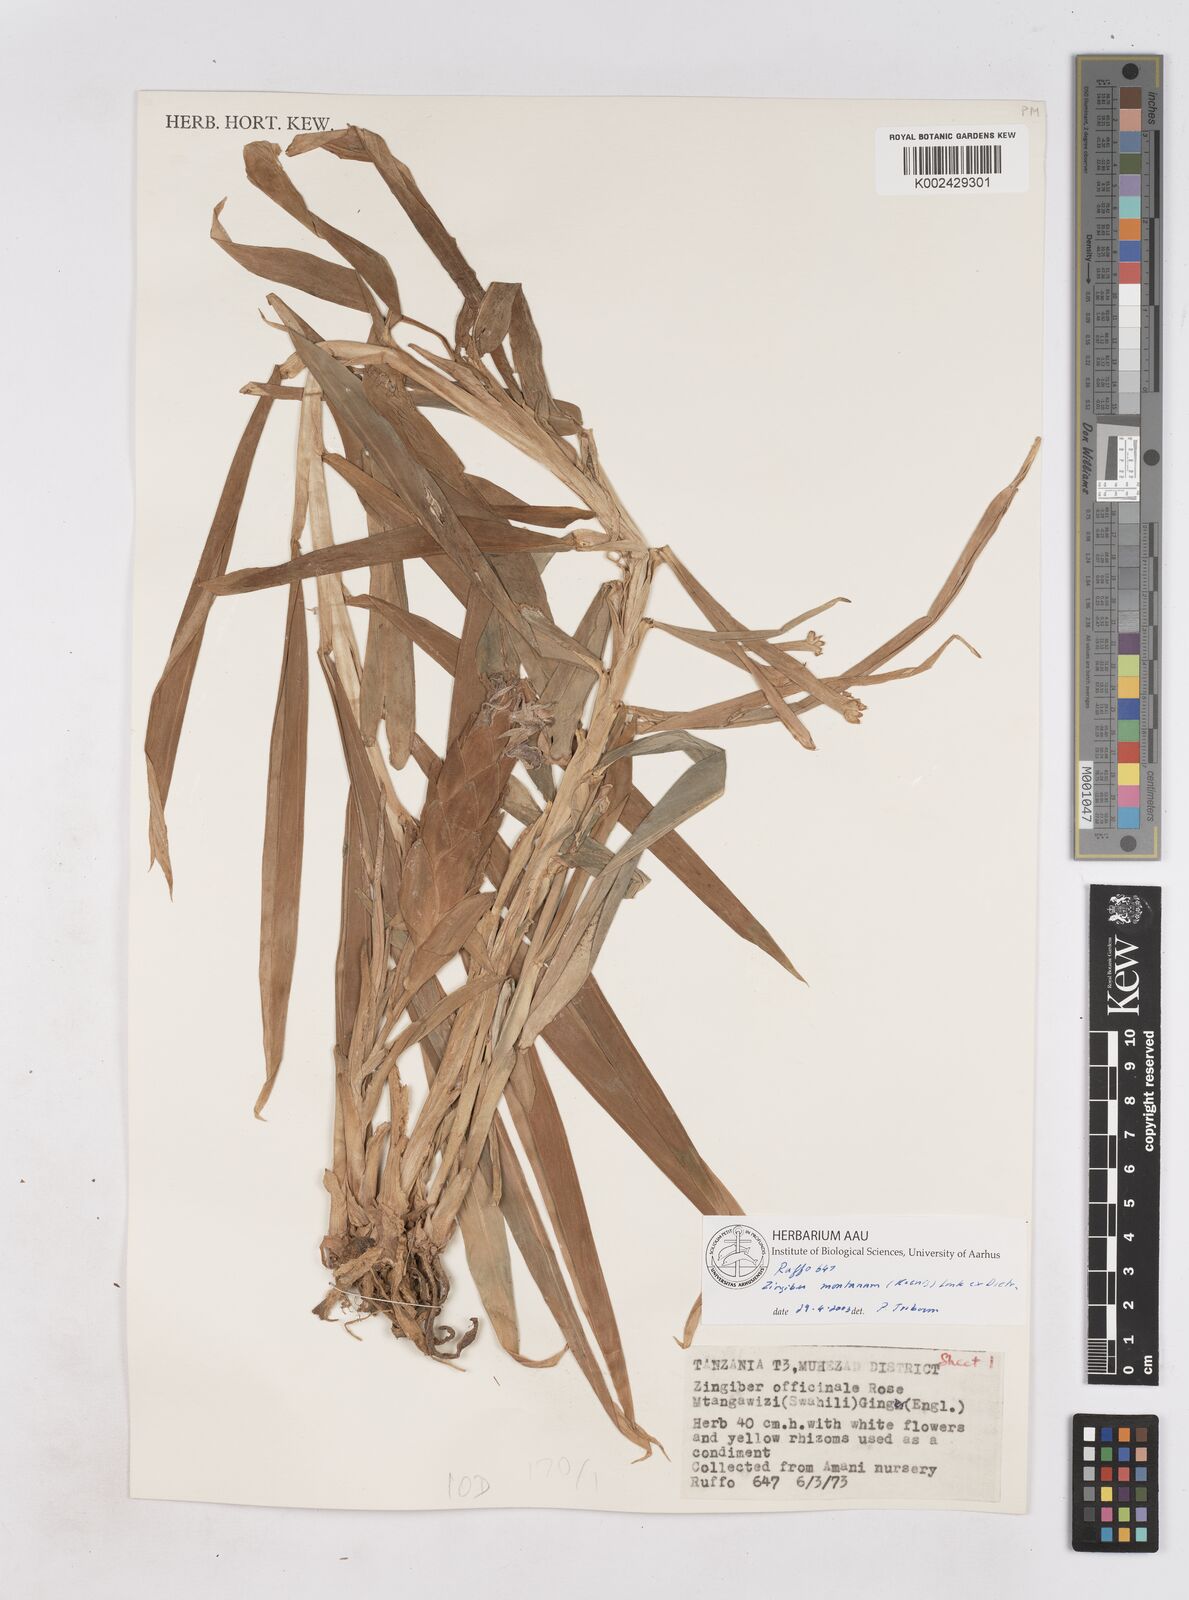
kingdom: Plantae
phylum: Tracheophyta
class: Liliopsida
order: Zingiberales
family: Zingiberaceae
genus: Zingiber
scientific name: Zingiber montanum
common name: Bengal ginger
